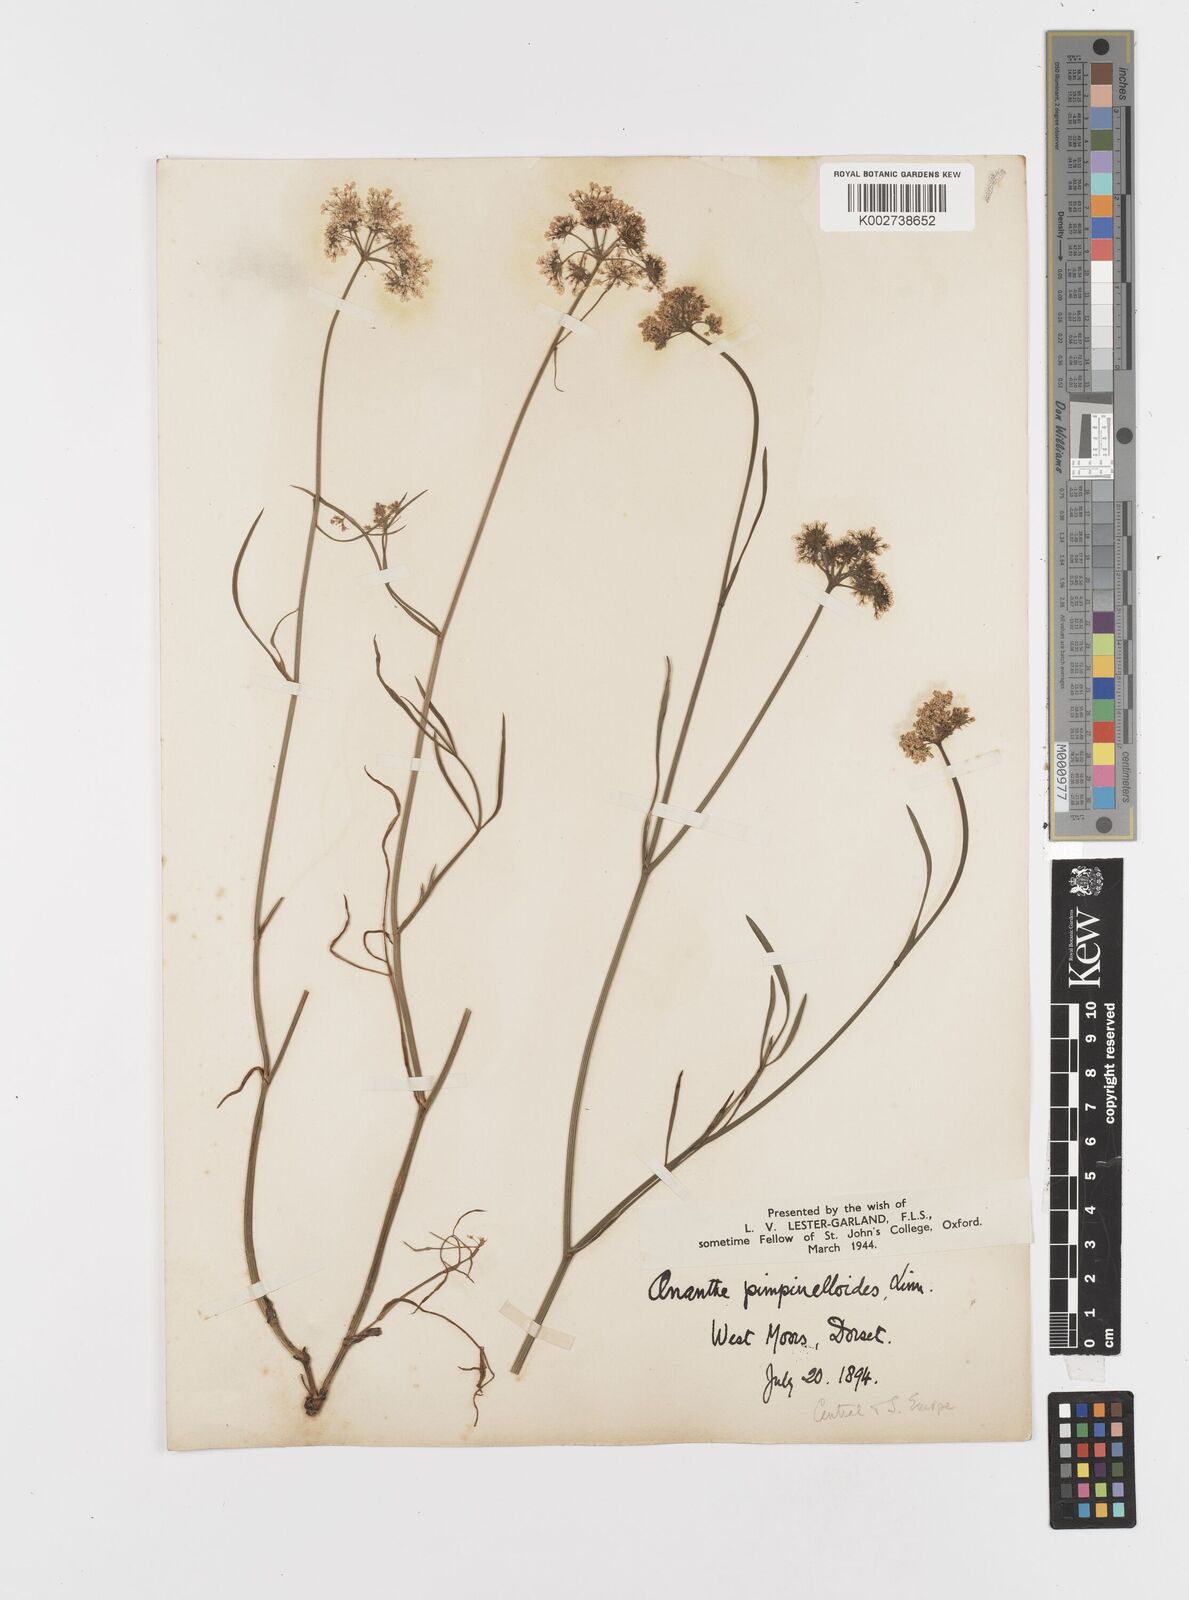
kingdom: Plantae
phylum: Tracheophyta
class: Magnoliopsida
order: Apiales
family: Apiaceae
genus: Oenanthe
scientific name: Oenanthe pimpinelloides
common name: Corky-fruited water-dropwort
